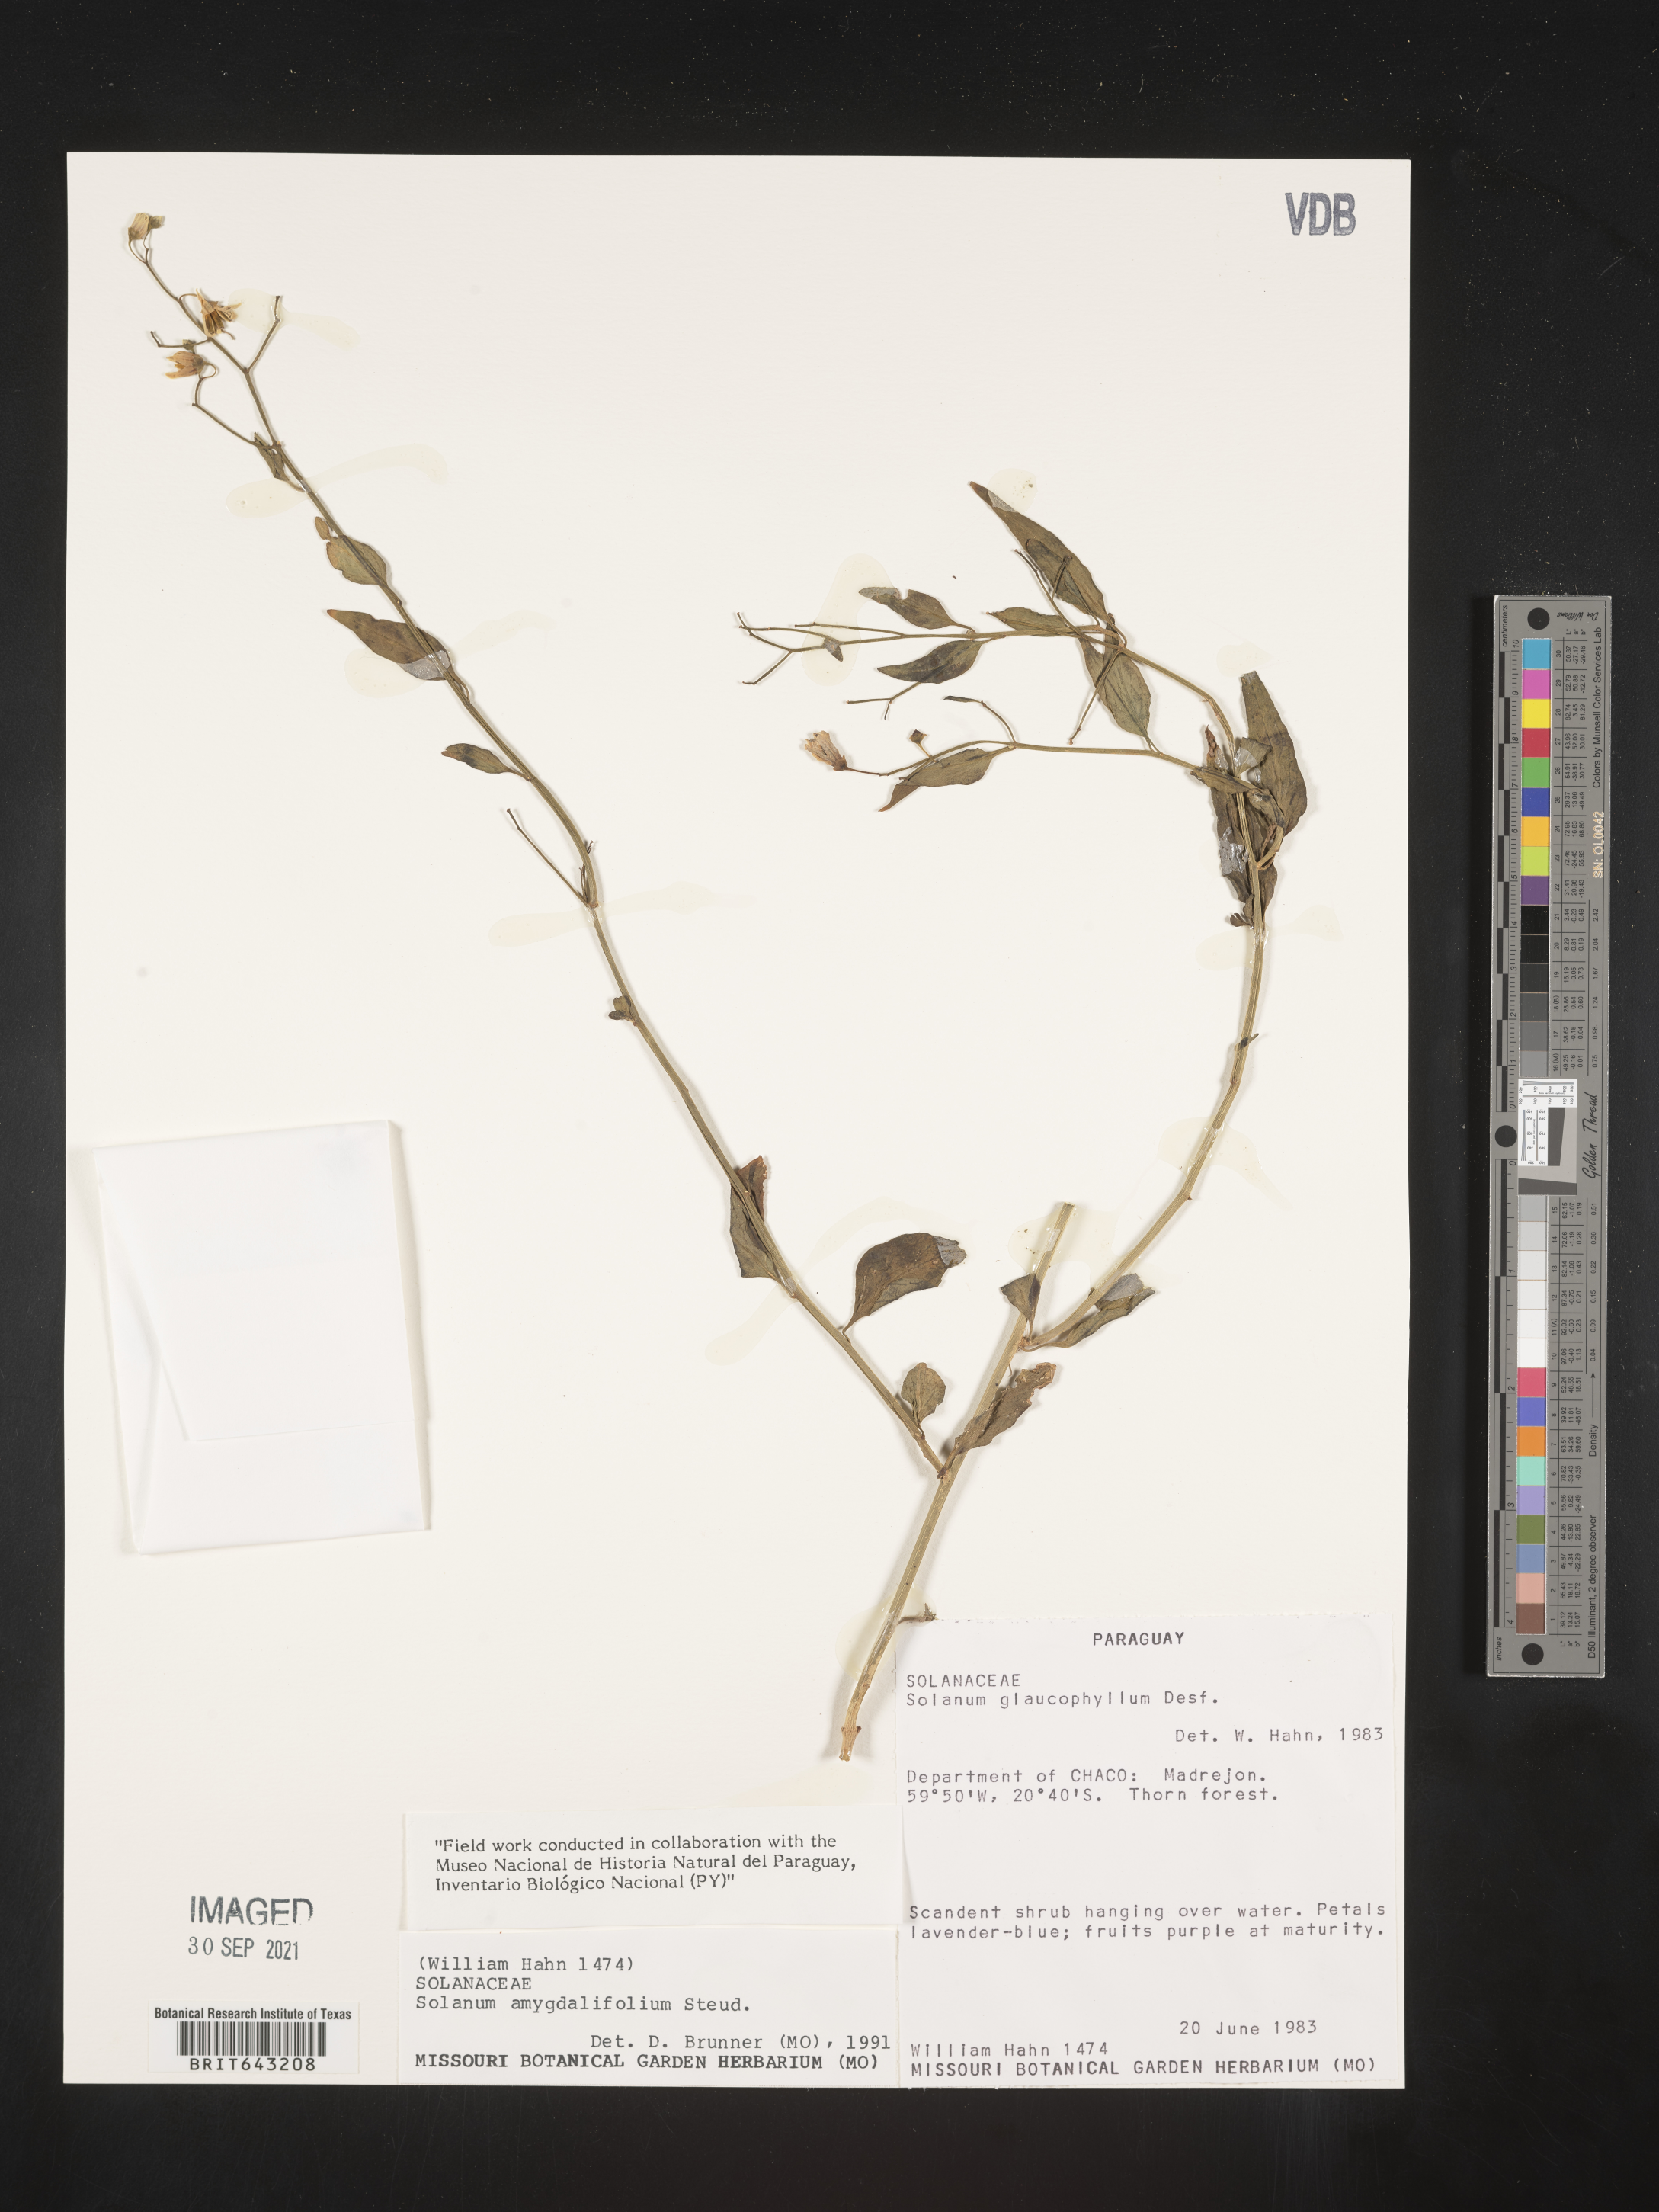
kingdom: Plantae
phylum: Tracheophyta
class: Magnoliopsida
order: Solanales
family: Solanaceae
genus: Solanum
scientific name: Solanum
